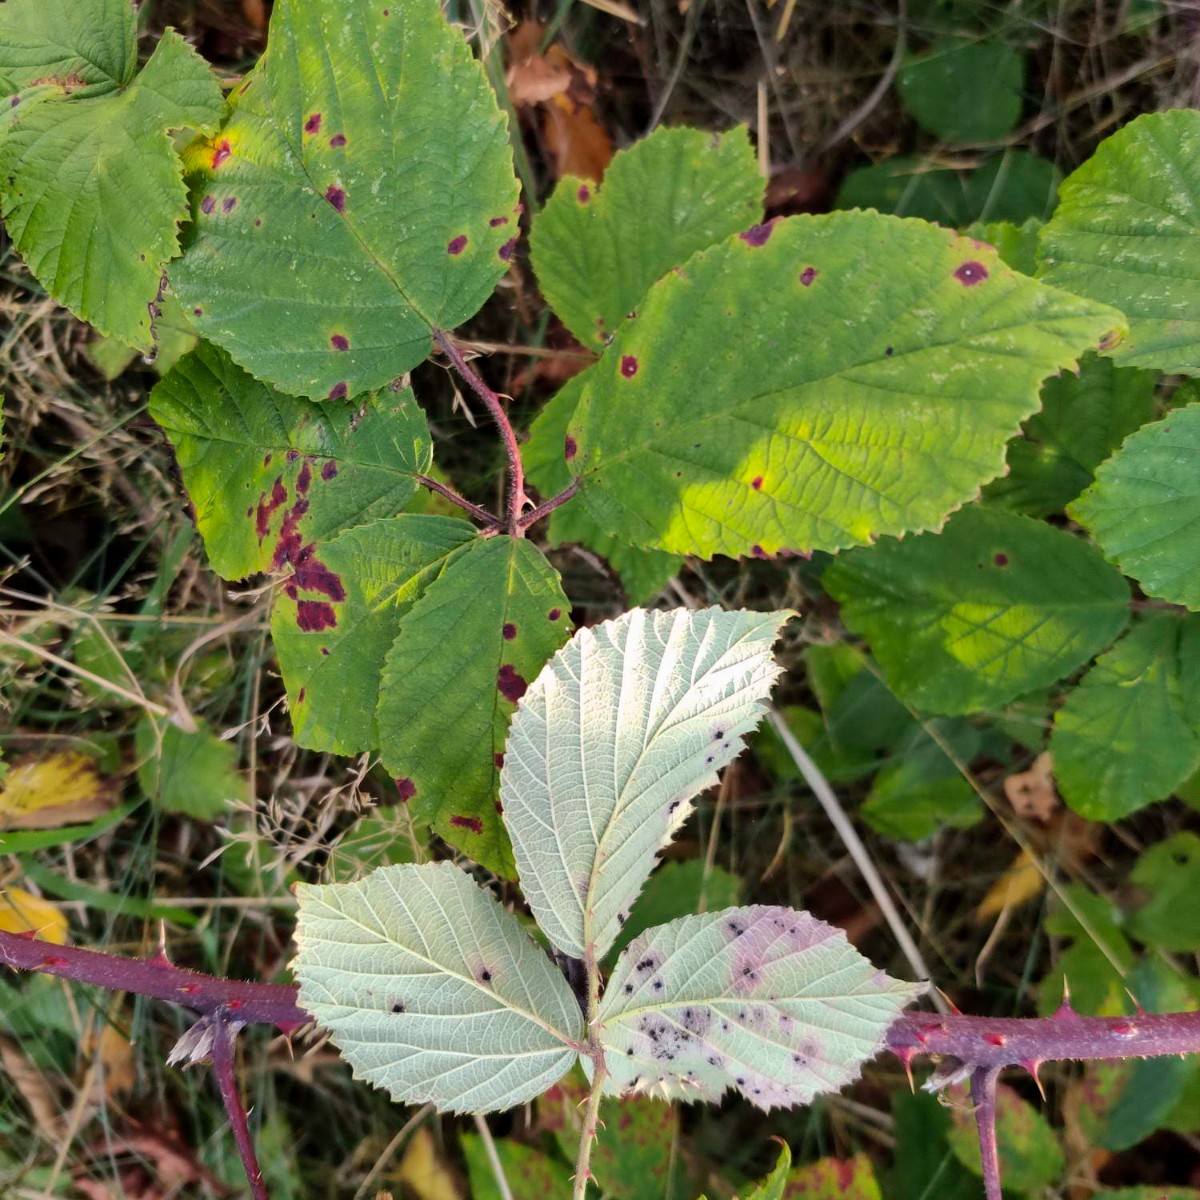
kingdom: Fungi
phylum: Basidiomycota
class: Pucciniomycetes
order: Pucciniales
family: Phragmidiaceae
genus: Phragmidium
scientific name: Phragmidium violaceum
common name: violet flercellerust
